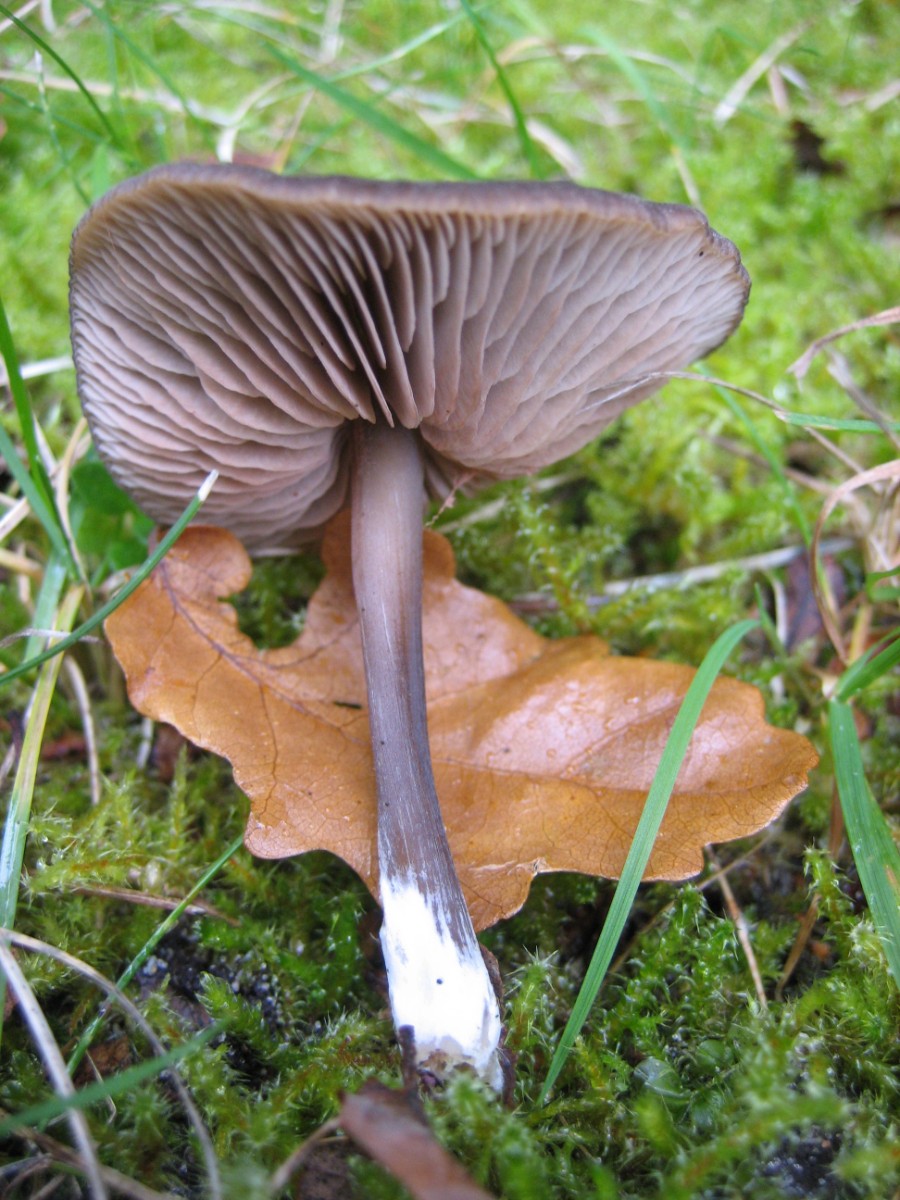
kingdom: Fungi
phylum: Basidiomycota
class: Agaricomycetes
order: Agaricales
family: Entolomataceae
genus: Entoloma
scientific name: Entoloma
